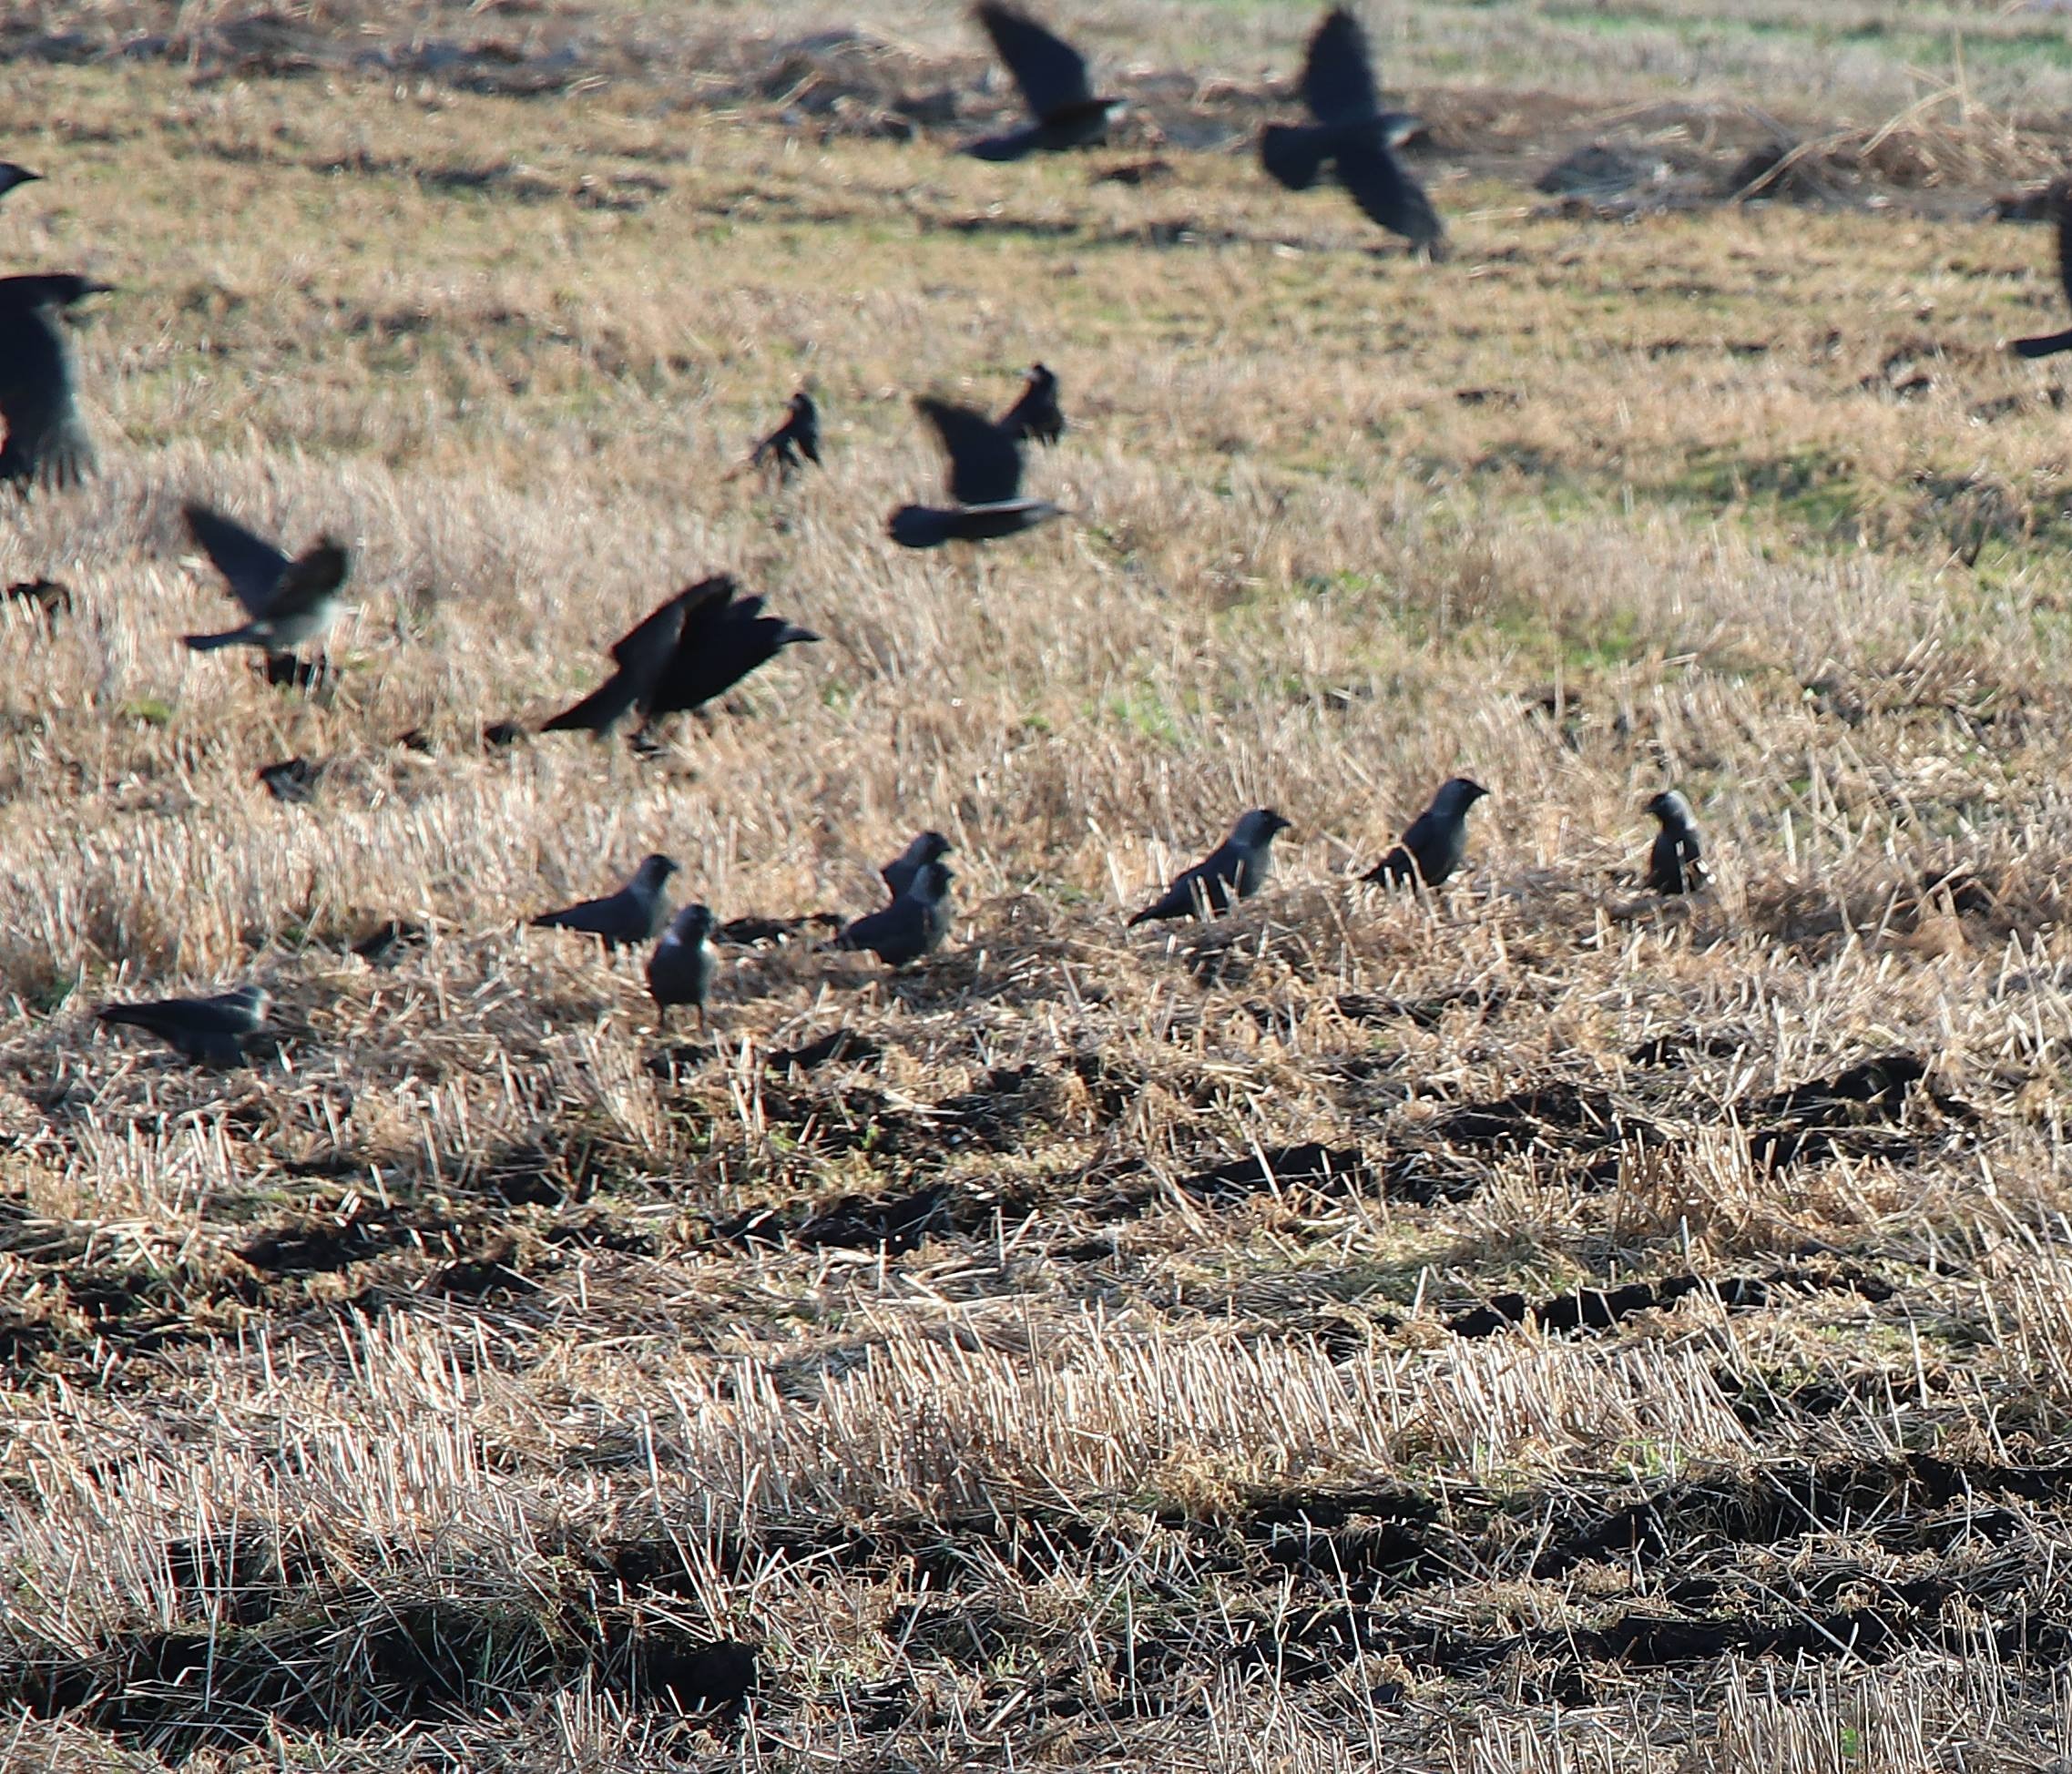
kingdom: Animalia
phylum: Chordata
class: Aves
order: Passeriformes
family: Corvidae
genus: Coloeus
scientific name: Coloeus monedula
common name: Allike
